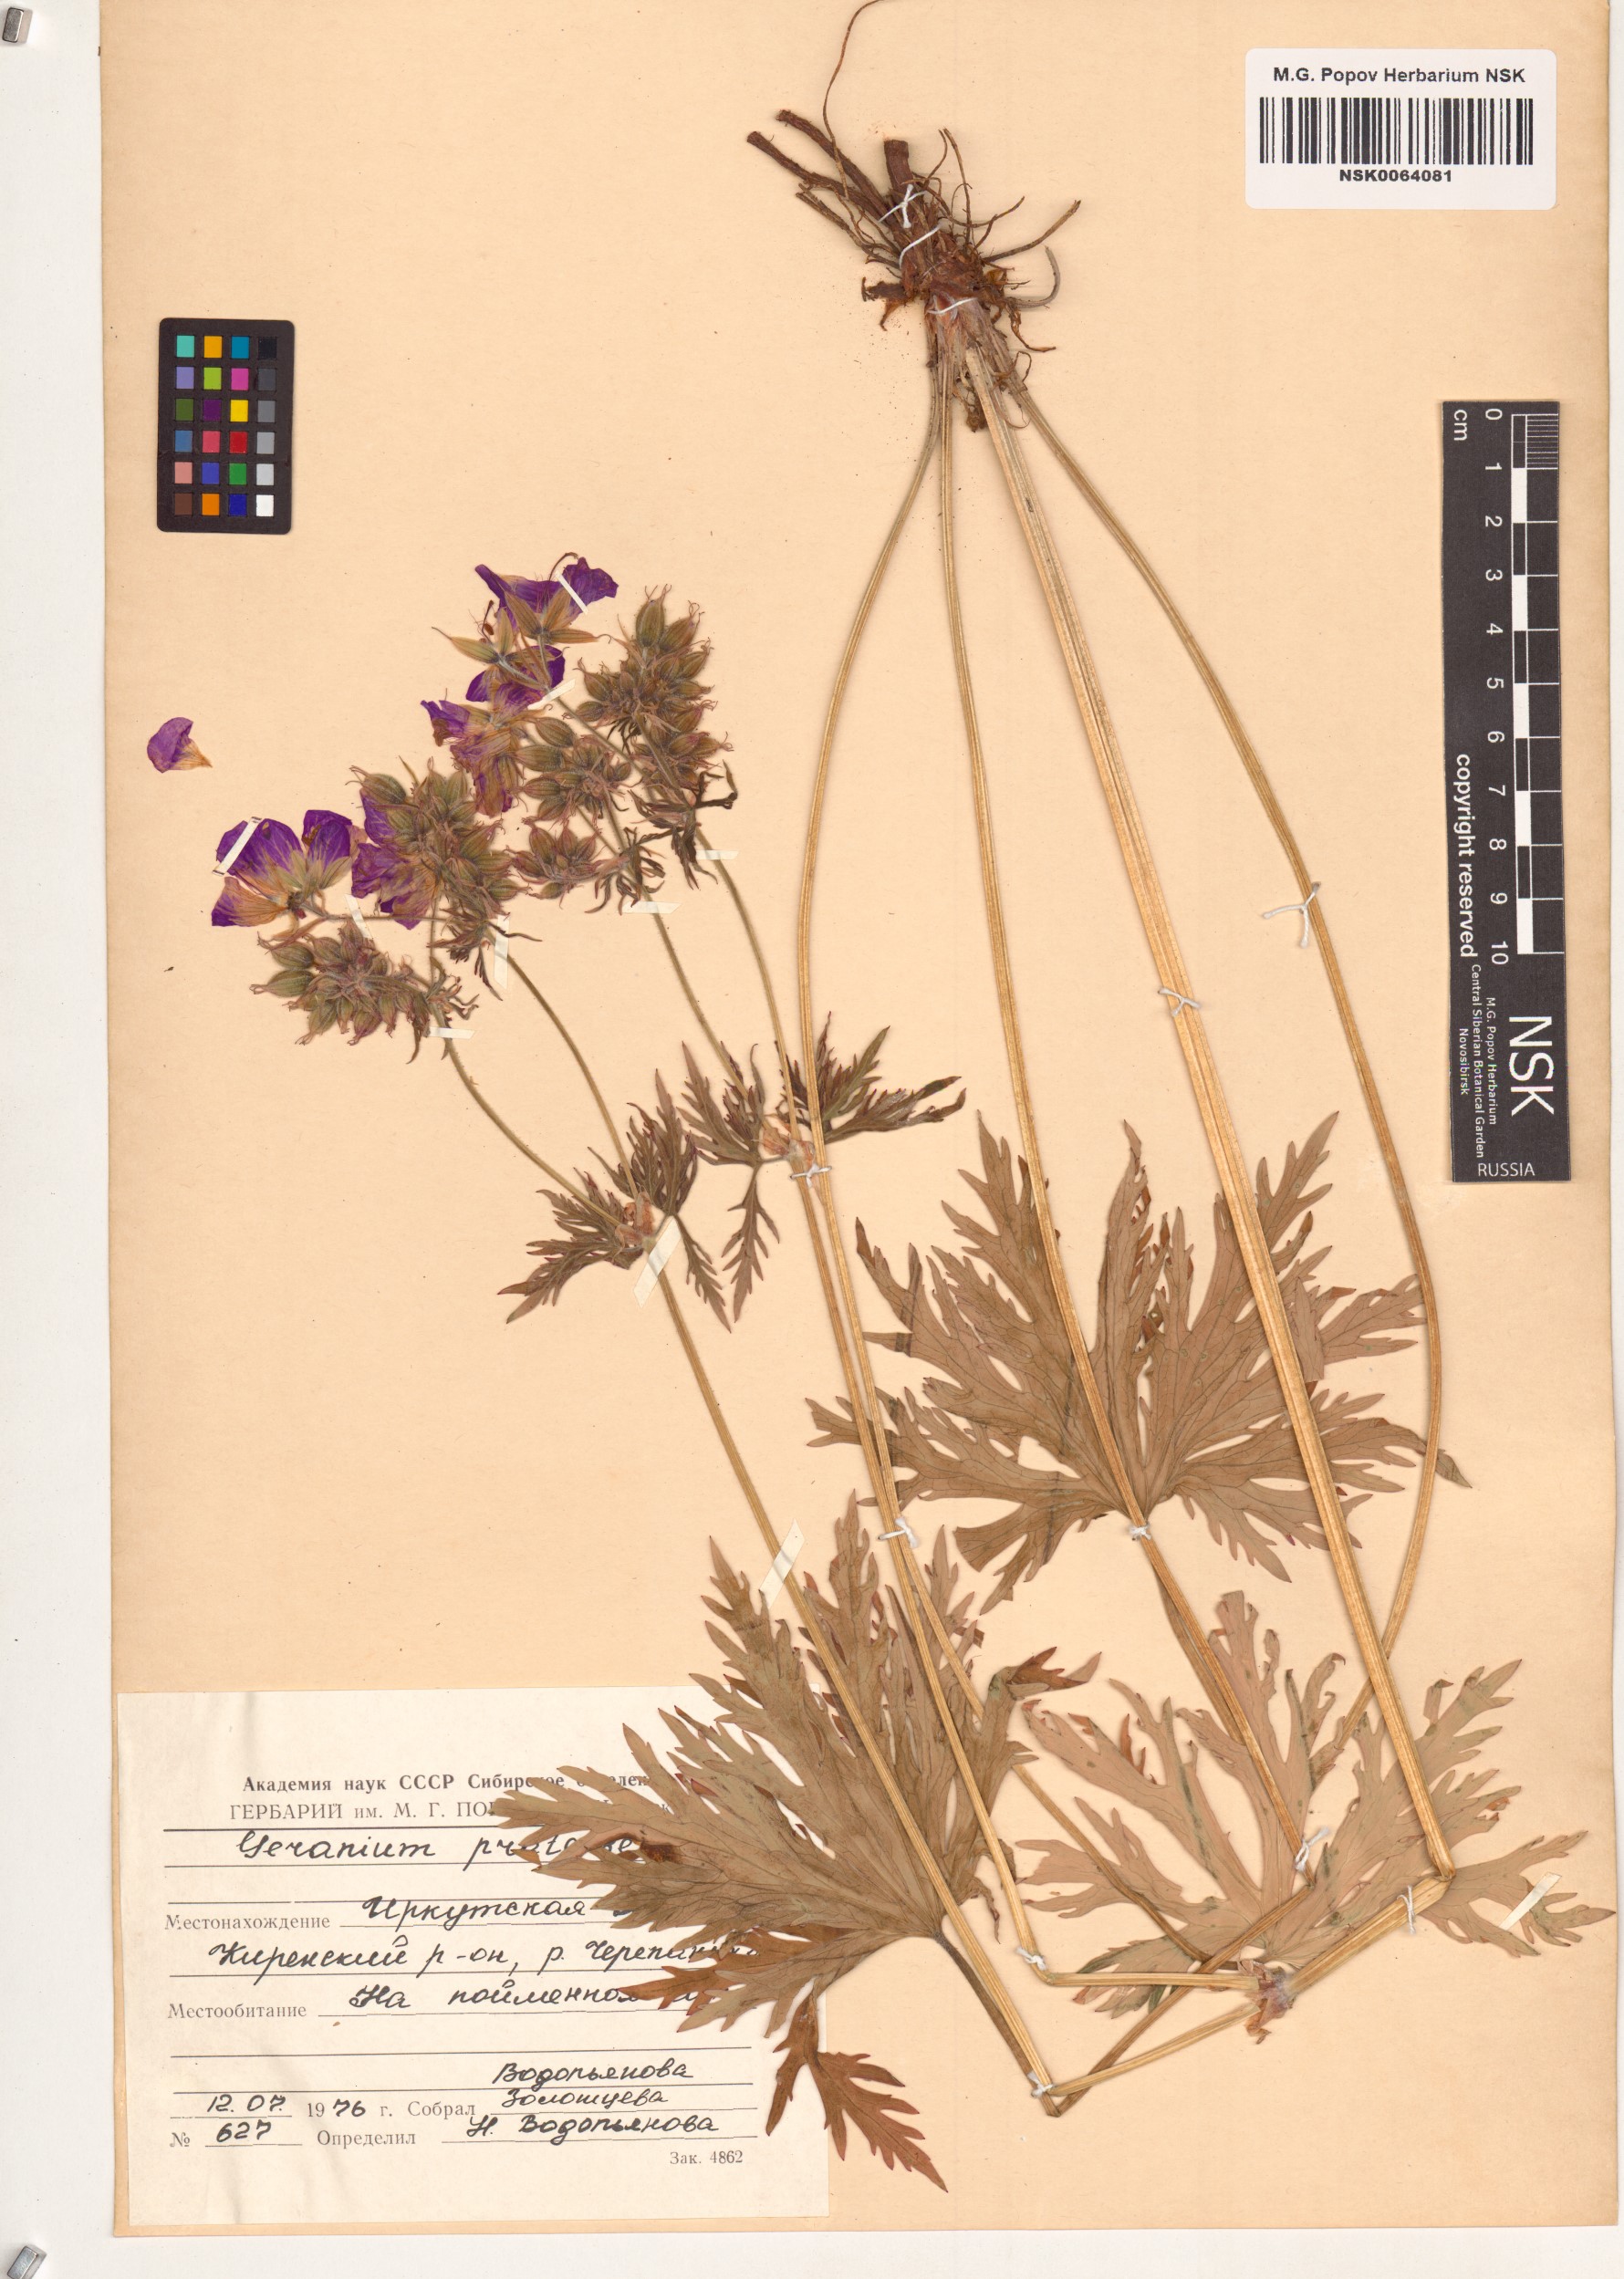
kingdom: Plantae
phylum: Tracheophyta
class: Magnoliopsida
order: Geraniales
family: Geraniaceae
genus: Geranium
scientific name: Geranium pratense
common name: Meadow crane's-bill
